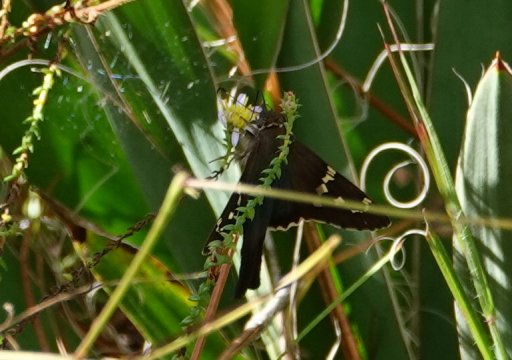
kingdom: Animalia
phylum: Arthropoda
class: Insecta
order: Lepidoptera
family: Hesperiidae
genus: Urbanus
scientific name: Urbanus proteus
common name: Long-tailed Skipper
